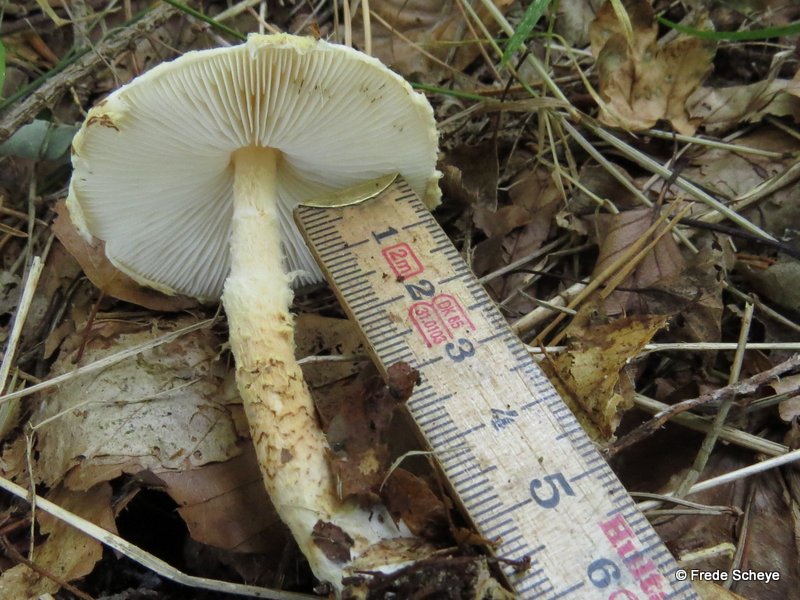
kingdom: Fungi
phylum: Basidiomycota
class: Agaricomycetes
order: Agaricales
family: Agaricaceae
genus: Lepiota
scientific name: Lepiota clypeolaria
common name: flosset parasolhat
